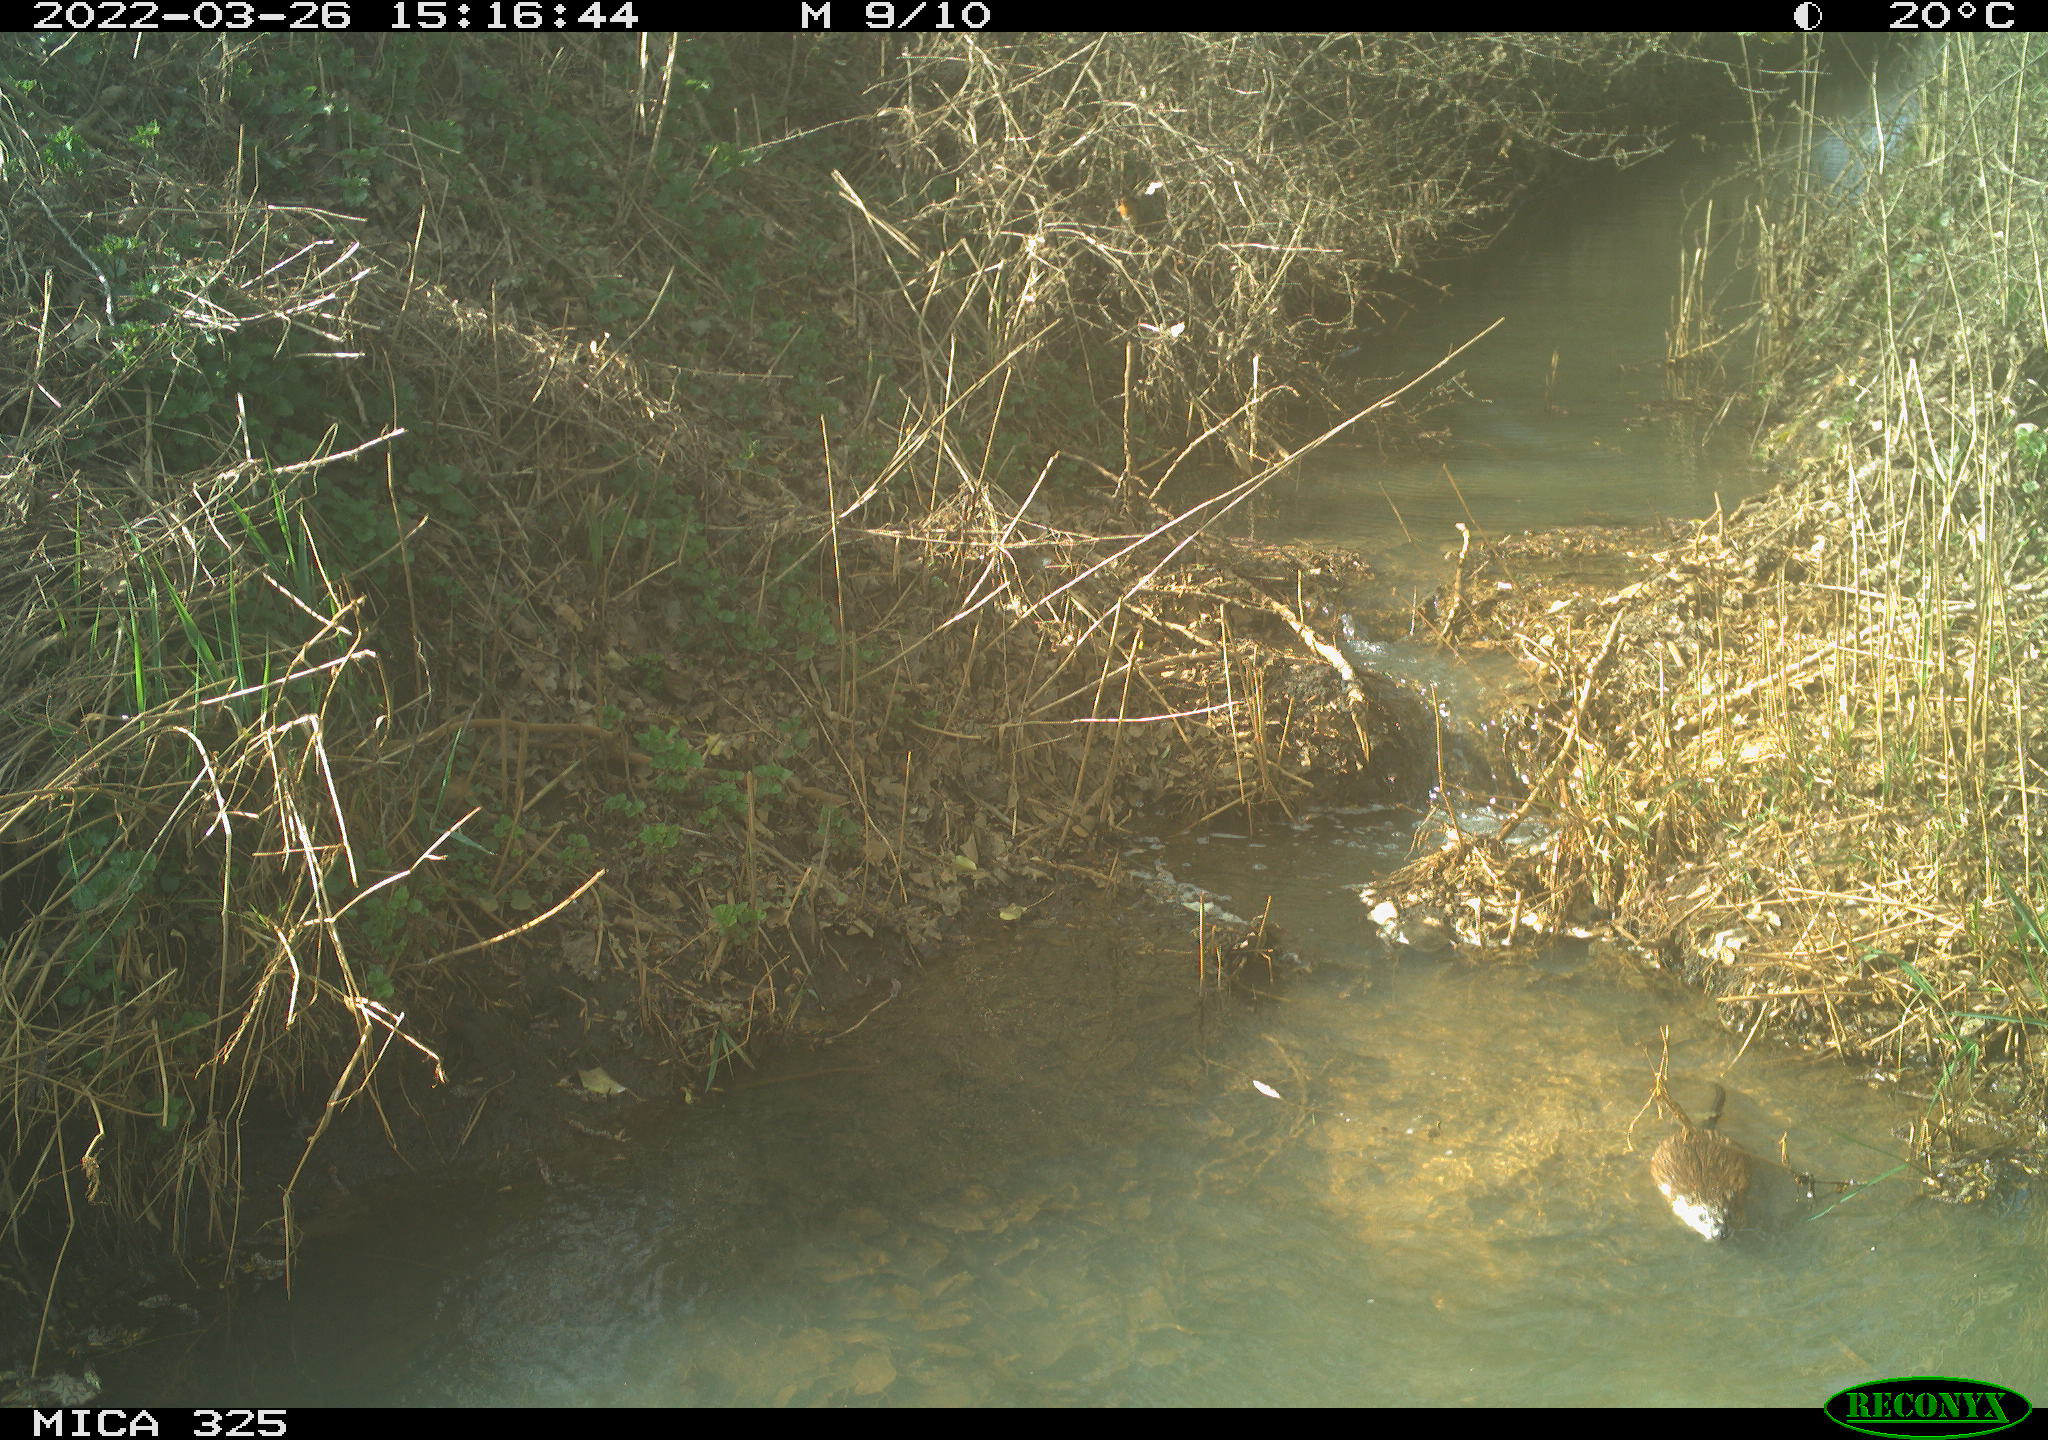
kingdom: Animalia
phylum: Chordata
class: Mammalia
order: Rodentia
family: Cricetidae
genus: Ondatra
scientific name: Ondatra zibethicus
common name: Muskrat
